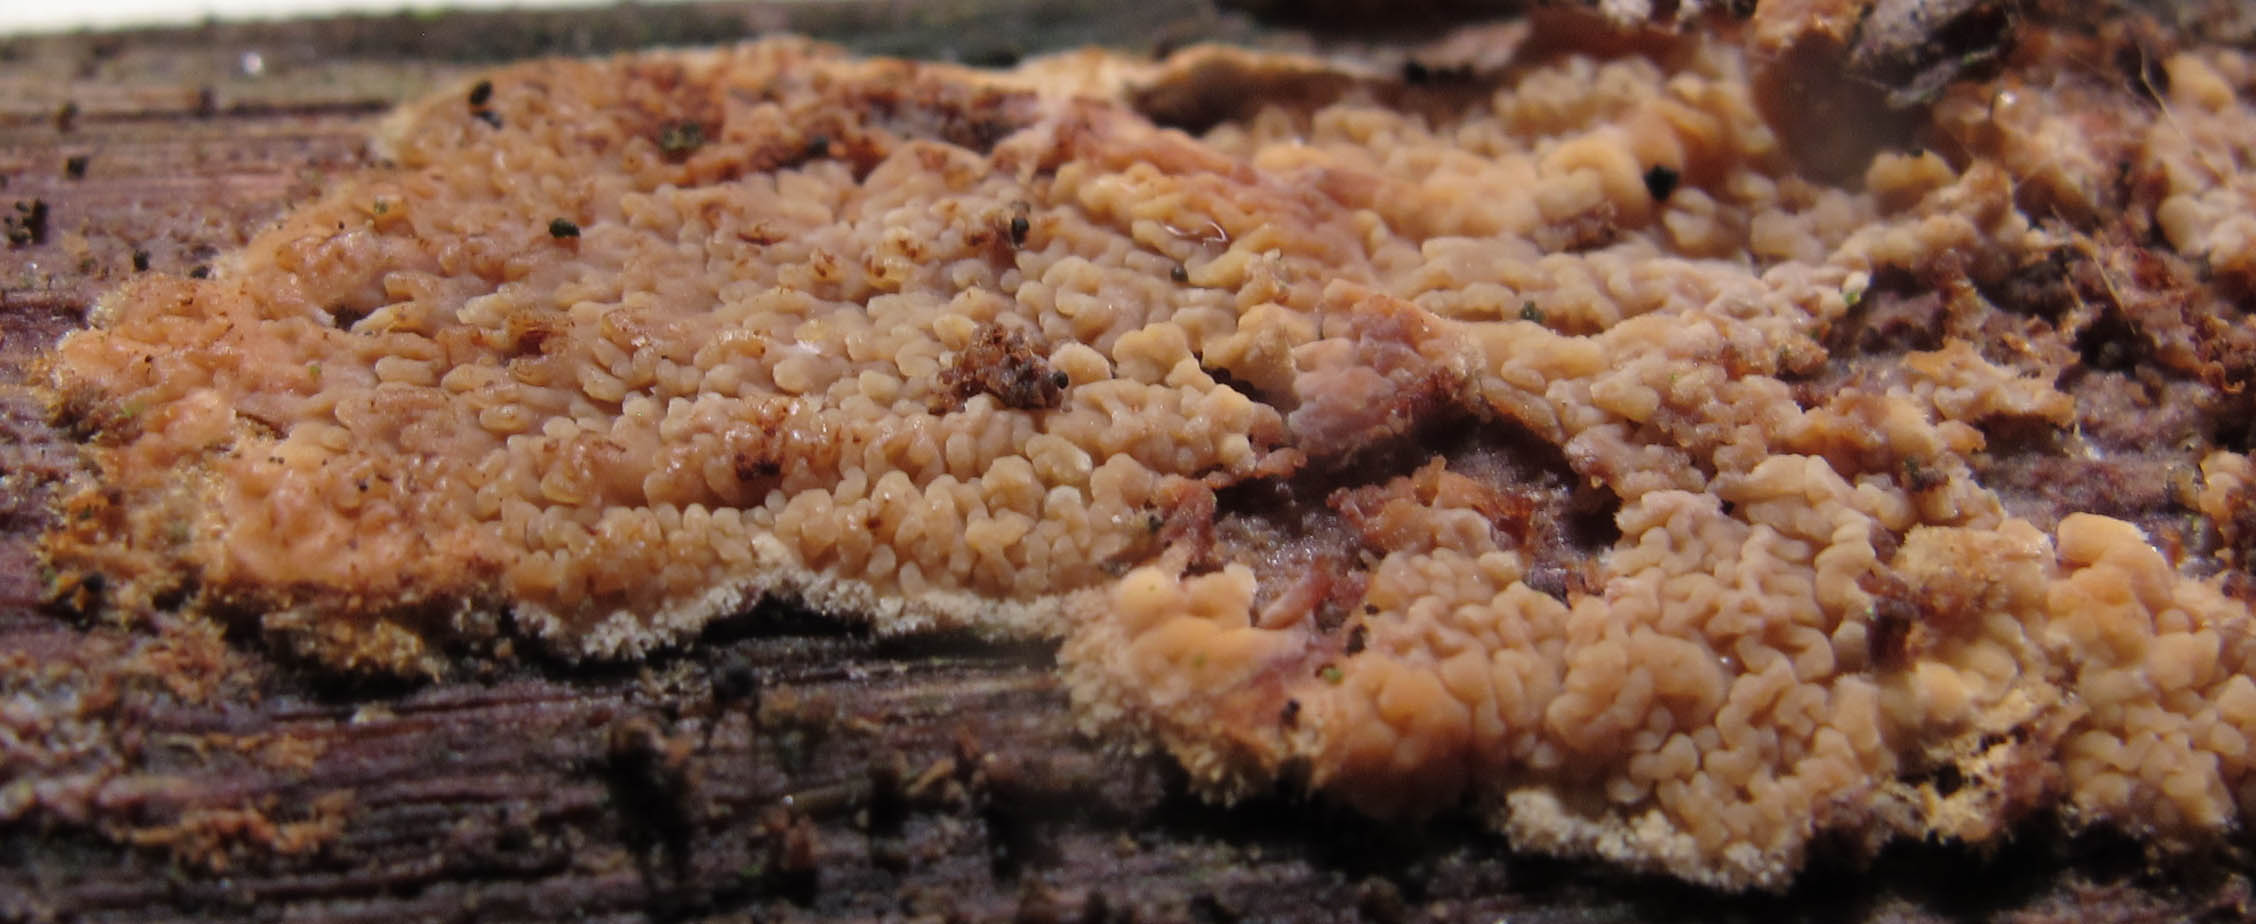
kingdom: Fungi
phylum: Basidiomycota
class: Agaricomycetes
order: Polyporales
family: Meruliaceae
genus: Phlebia
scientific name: Phlebia rufa
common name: ege-åresvamp
